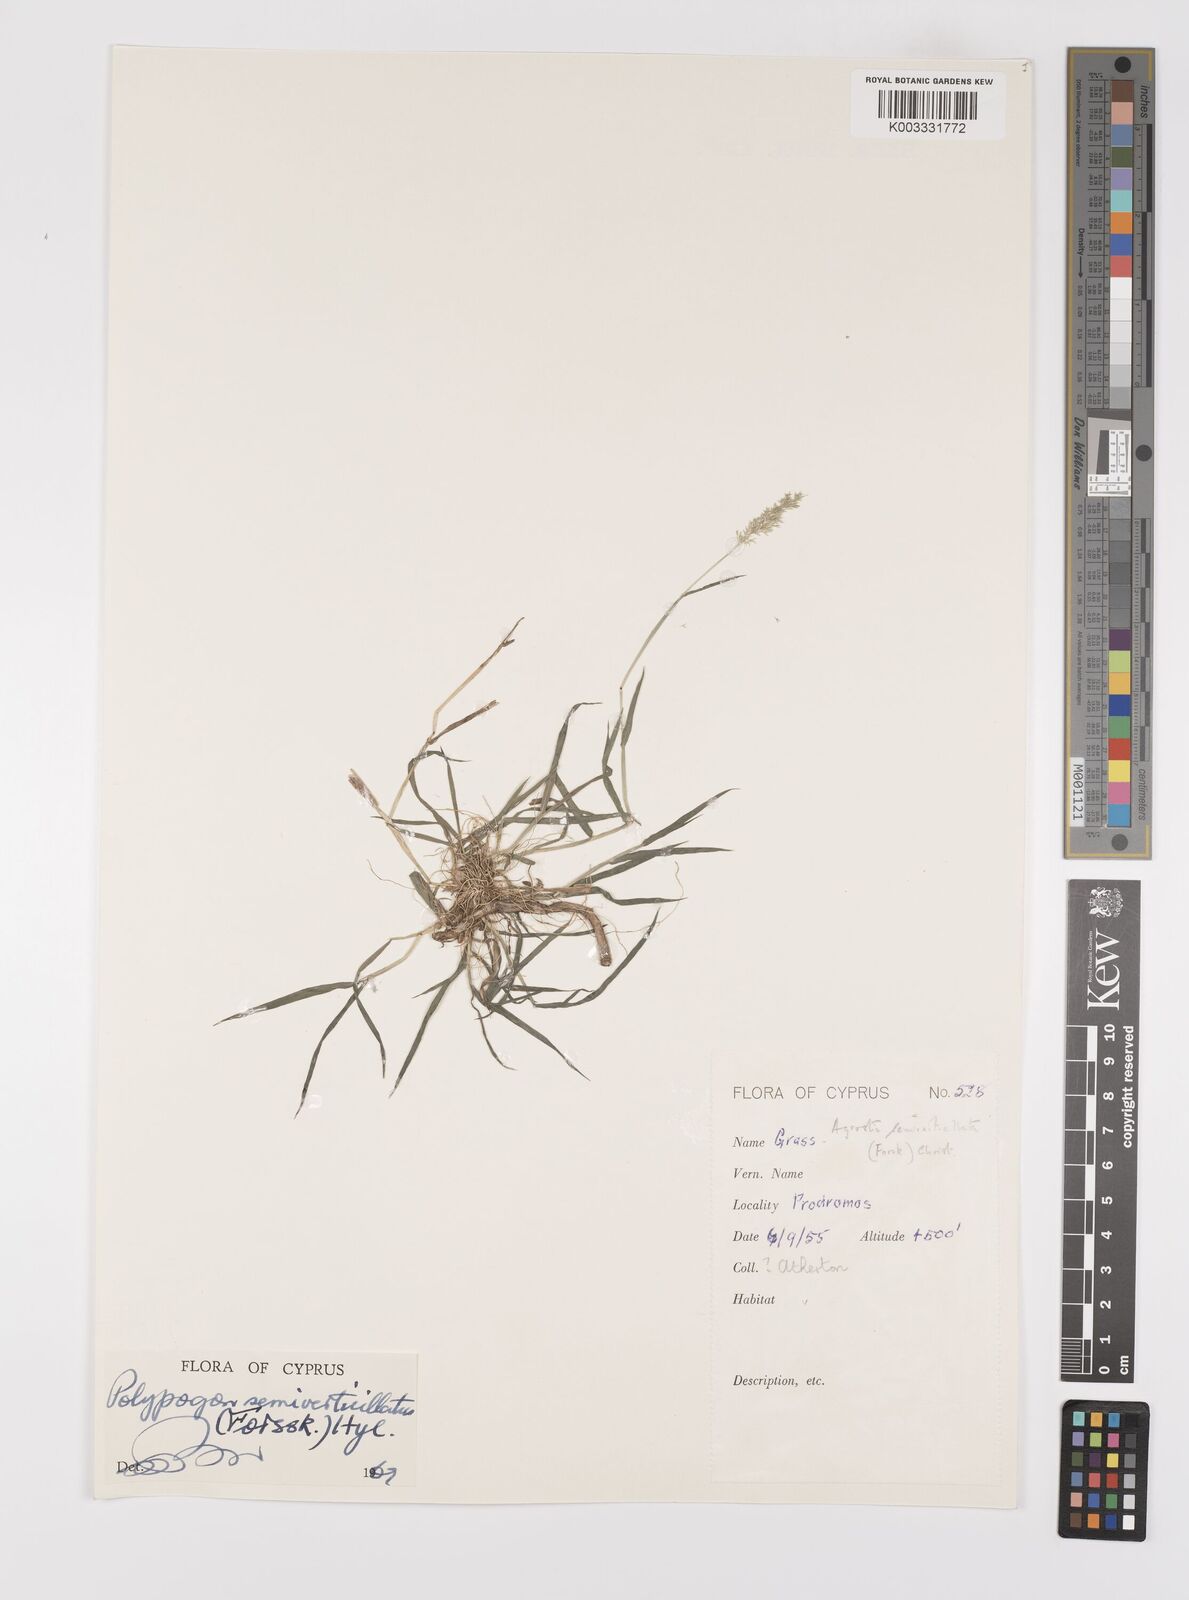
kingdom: Plantae
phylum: Tracheophyta
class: Liliopsida
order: Poales
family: Poaceae
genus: Polypogon
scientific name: Polypogon viridis
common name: Water bent
